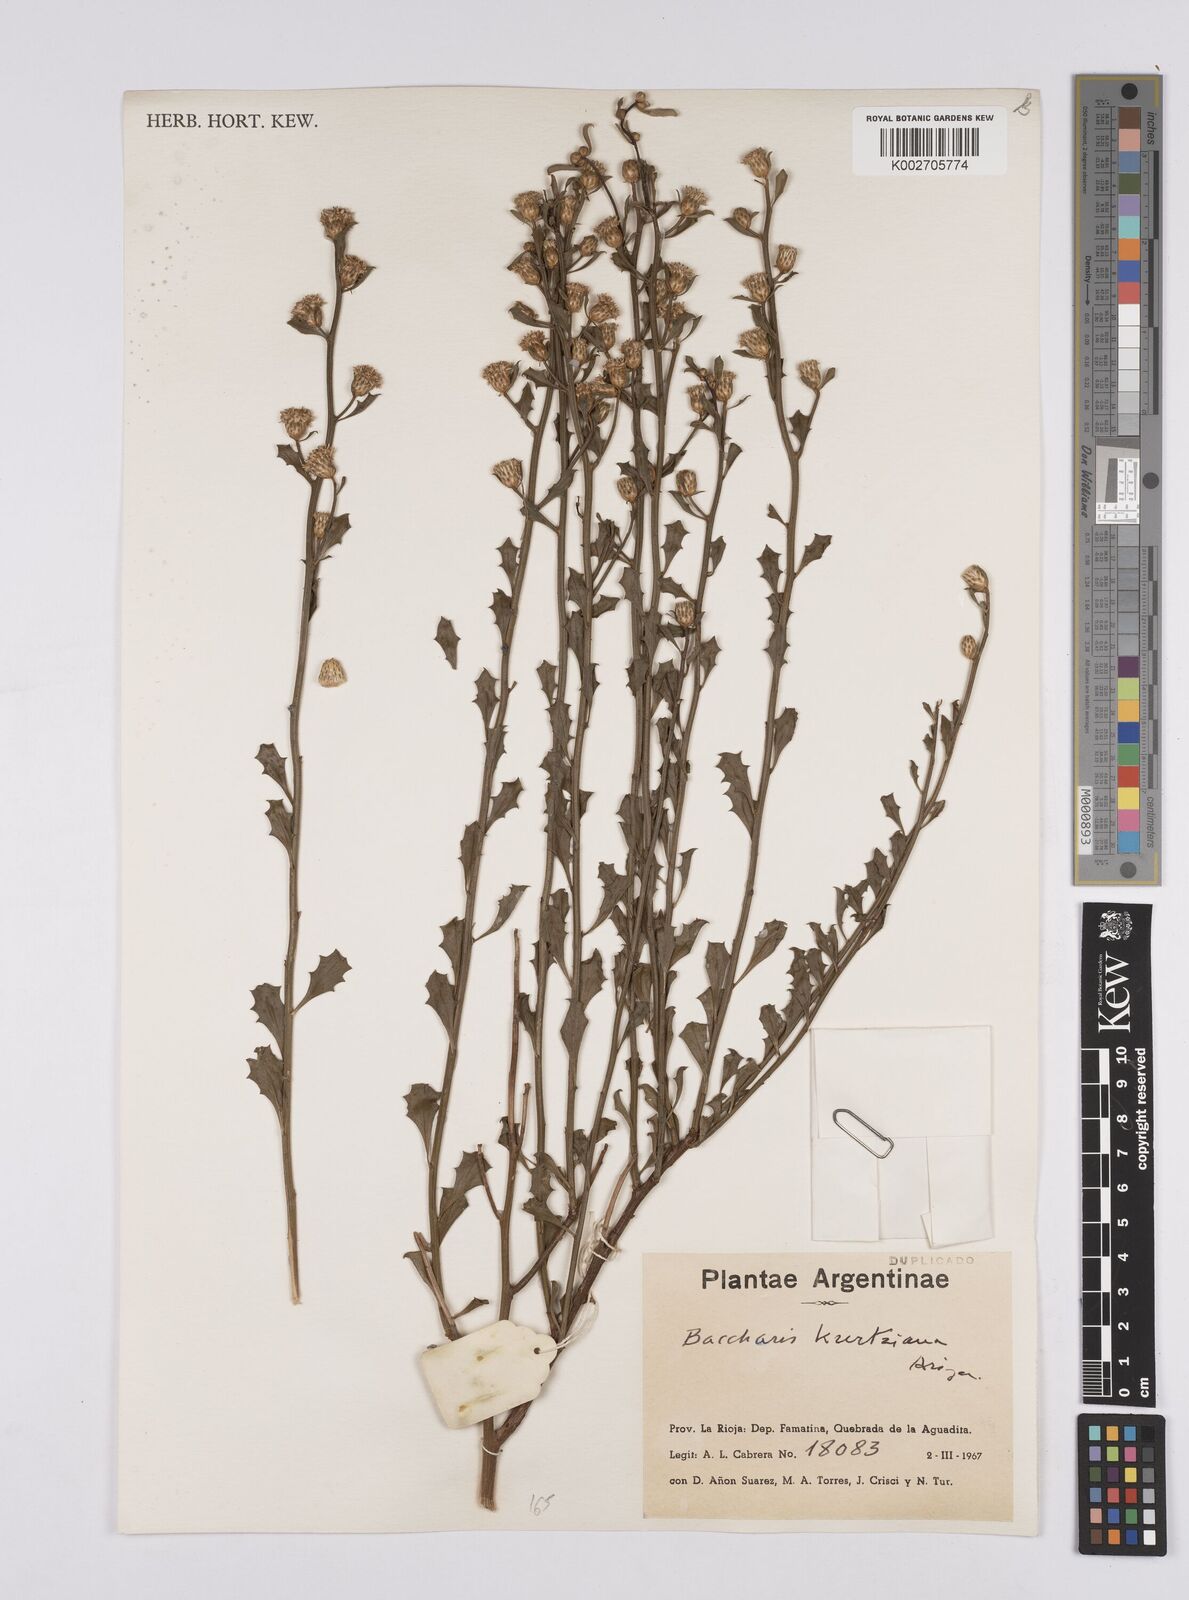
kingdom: Plantae
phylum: Tracheophyta
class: Magnoliopsida
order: Asterales
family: Asteraceae
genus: Baccharis
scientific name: Baccharis kurtziana
